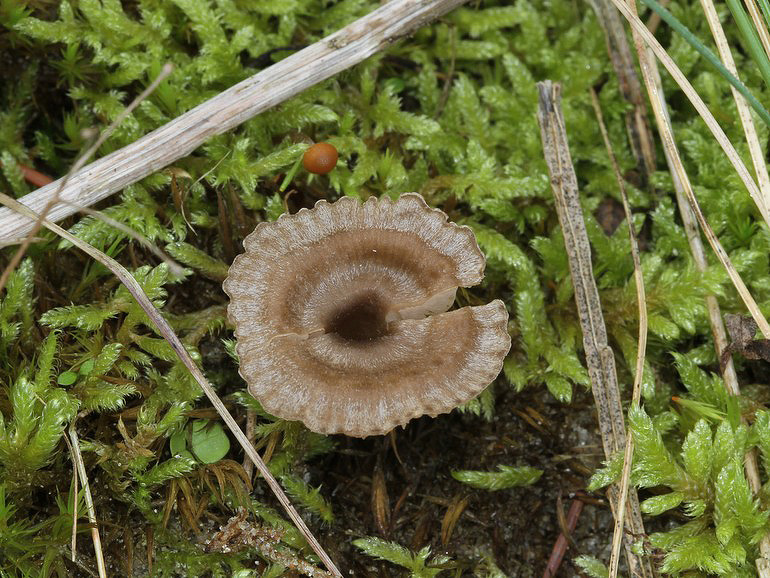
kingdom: Fungi
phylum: Basidiomycota
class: Agaricomycetes
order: Agaricales
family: Entolomataceae
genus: Entoloma
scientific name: Entoloma undatum
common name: bæltet rødblad
